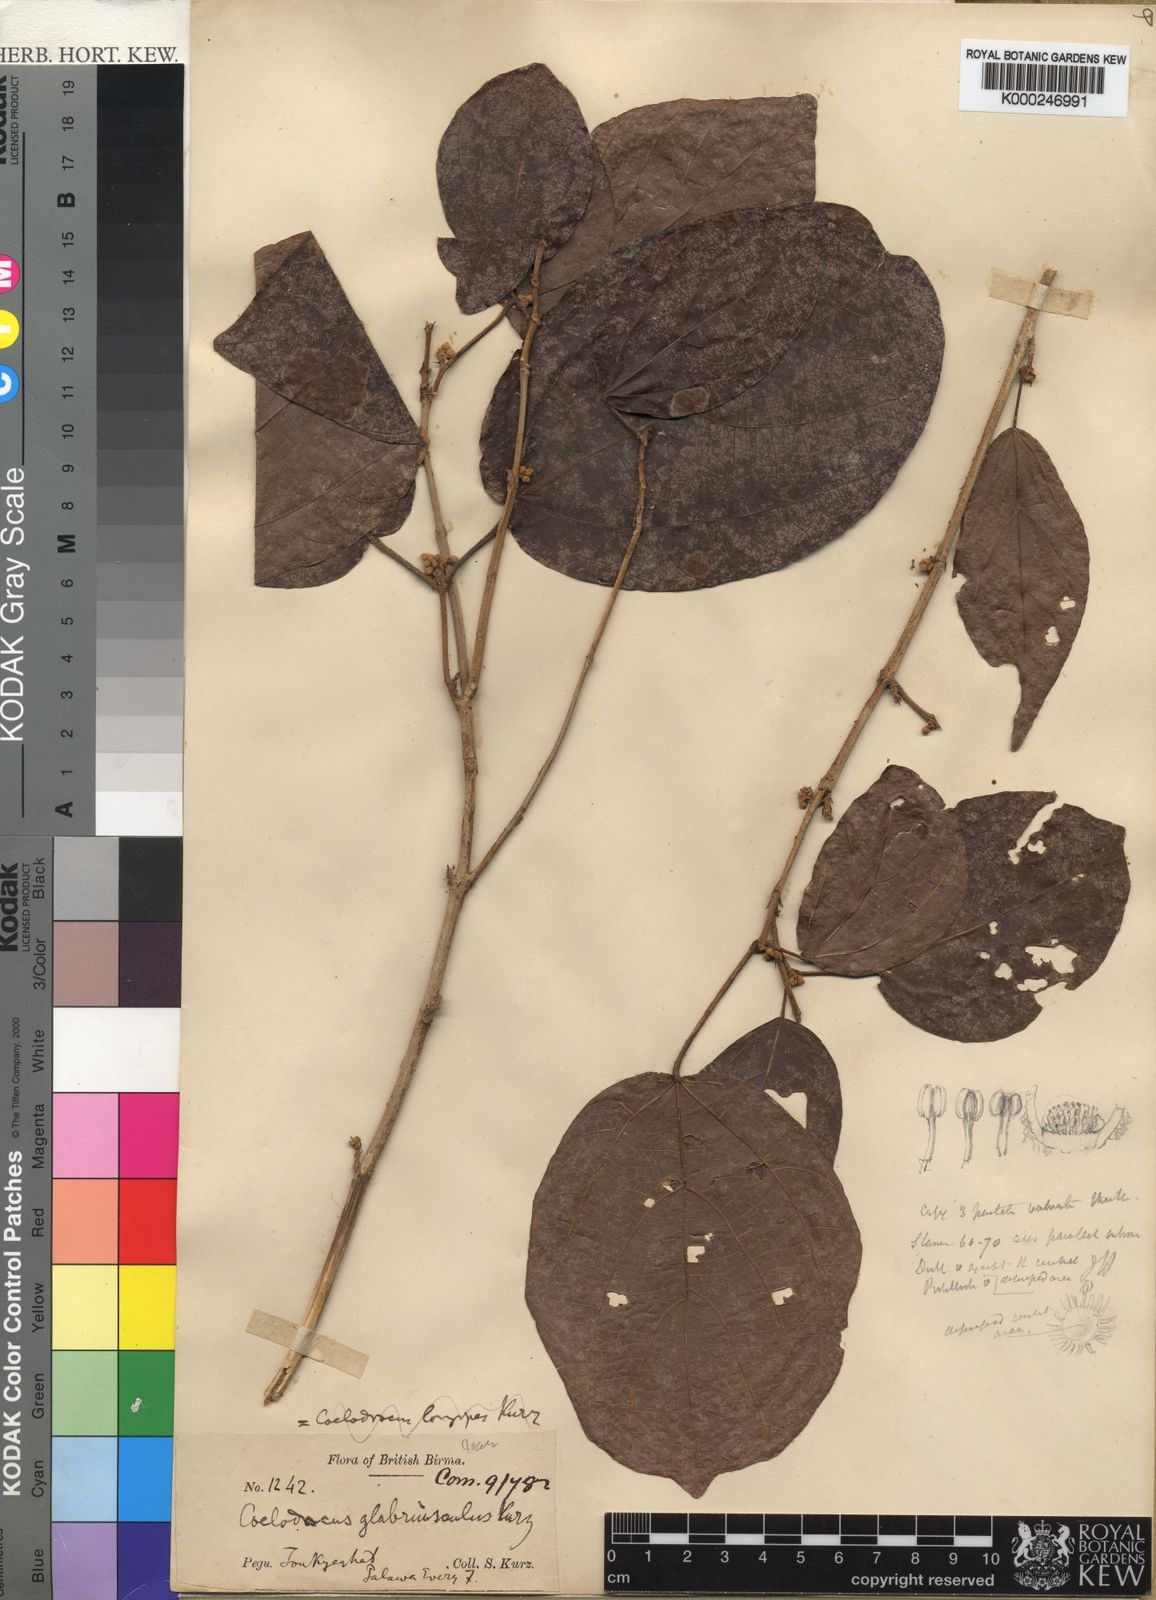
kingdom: Plantae
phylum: Tracheophyta
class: Magnoliopsida
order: Malpighiales
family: Euphorbiaceae
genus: Mallotus
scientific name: Mallotus glabriusculus
